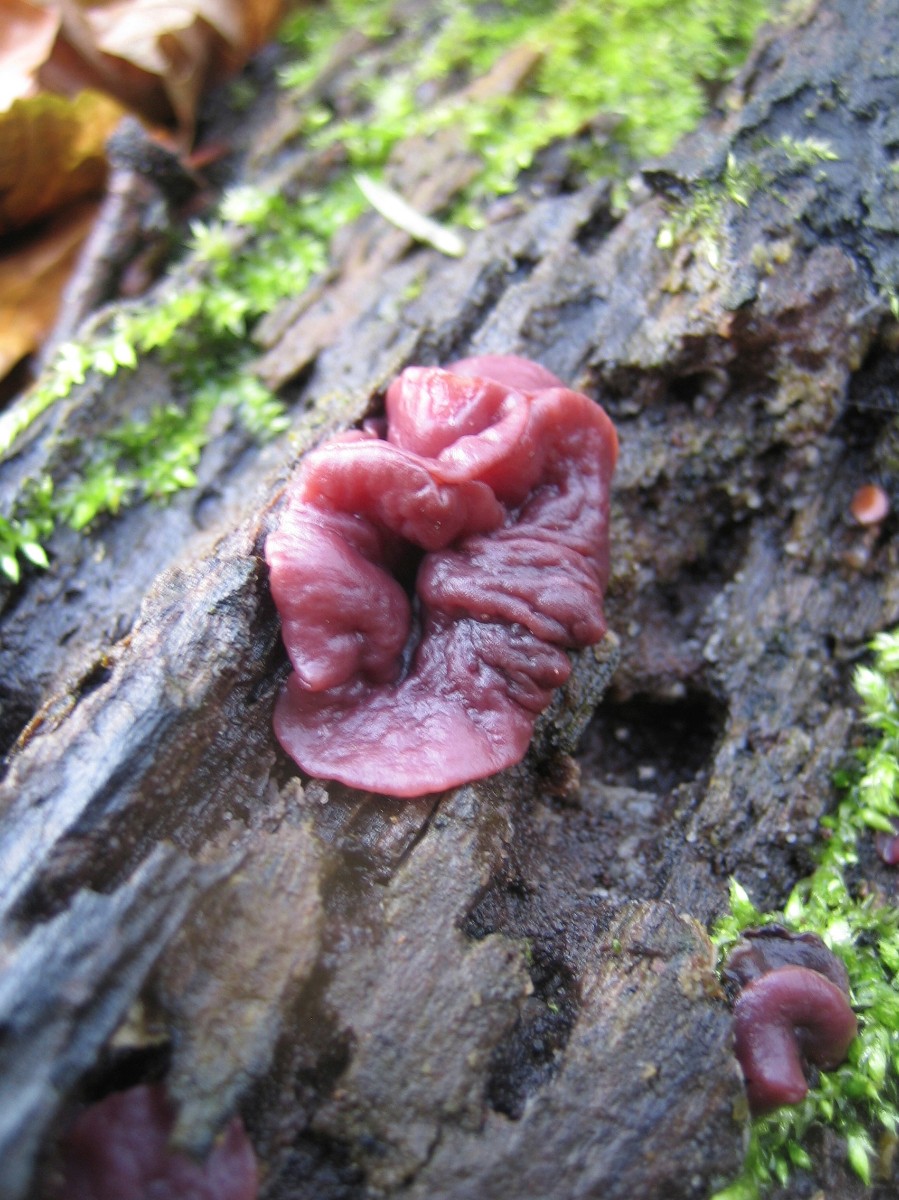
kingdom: Fungi
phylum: Ascomycota
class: Leotiomycetes
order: Helotiales
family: Gelatinodiscaceae
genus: Ascocoryne
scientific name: Ascocoryne cylichnium
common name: stor sejskive
